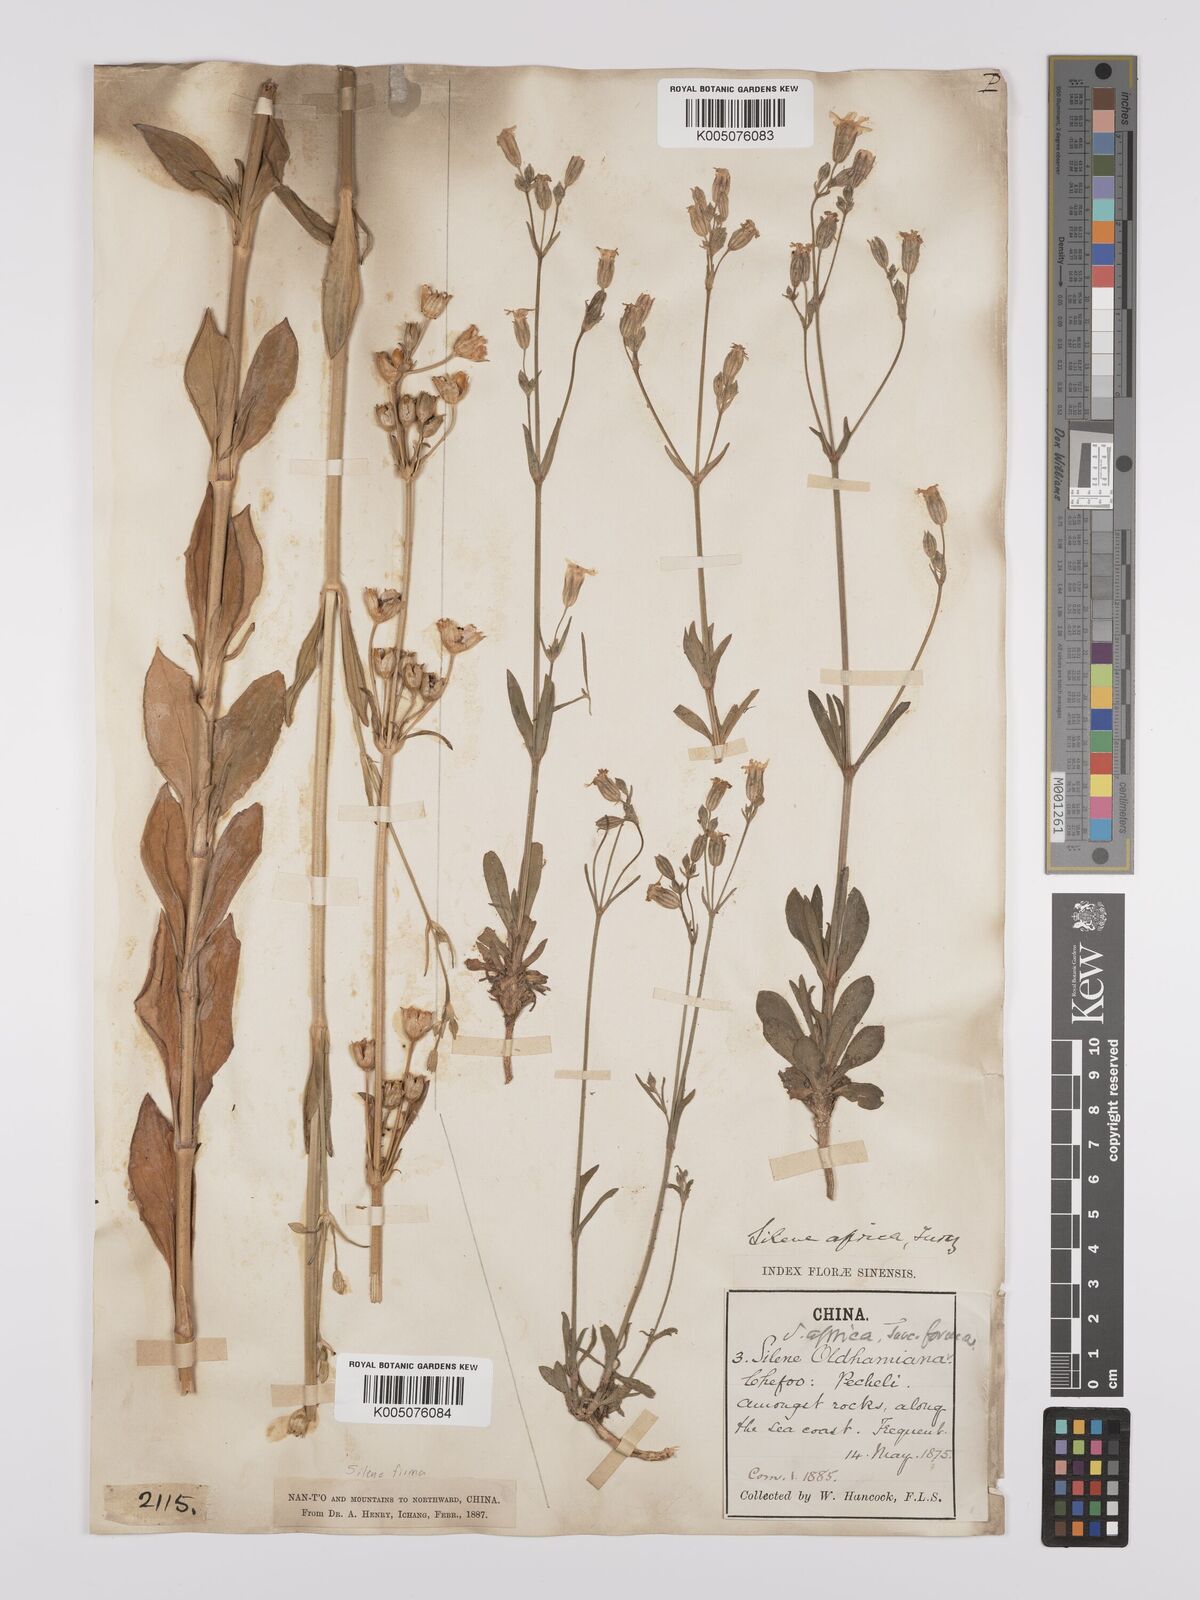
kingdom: Plantae
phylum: Tracheophyta
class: Magnoliopsida
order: Caryophyllales
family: Caryophyllaceae
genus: Silene
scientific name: Silene aprica
